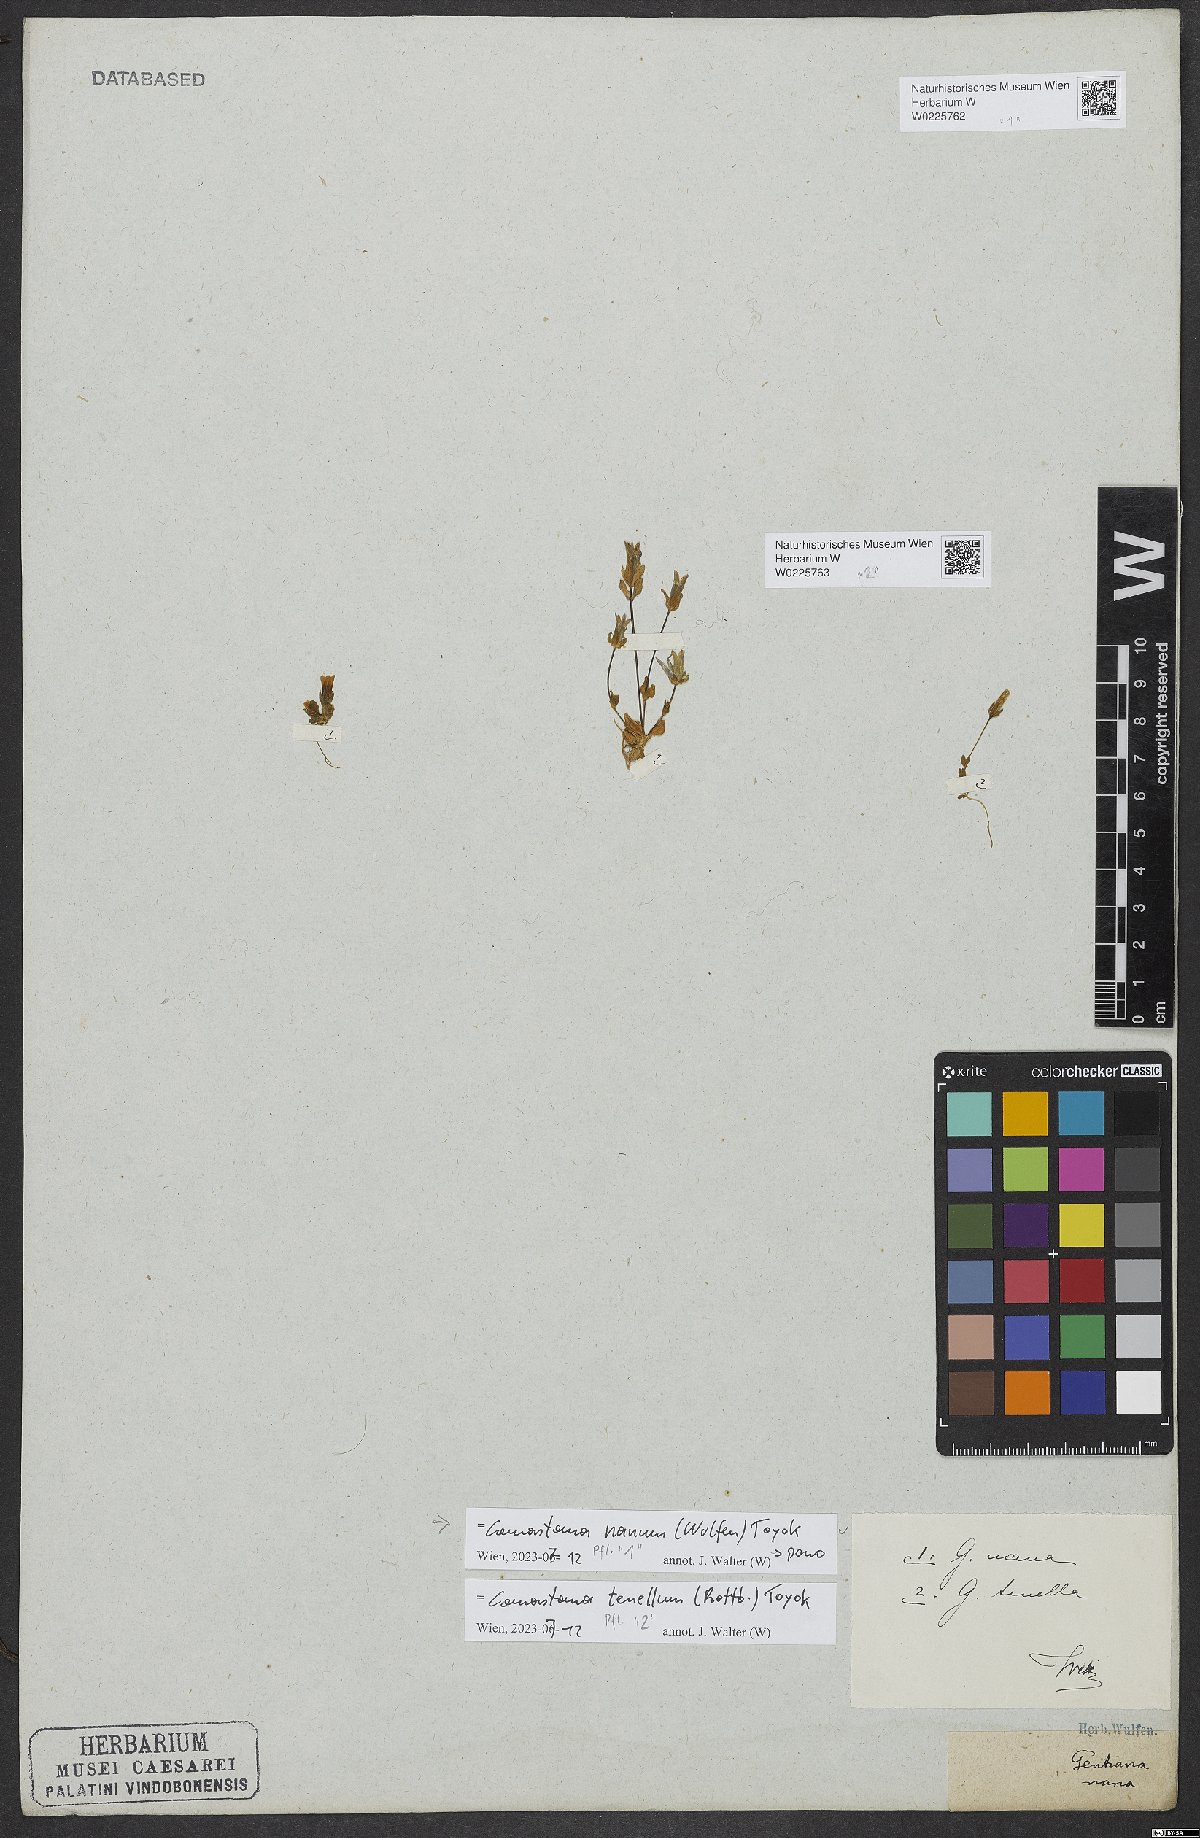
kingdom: Plantae
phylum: Tracheophyta
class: Magnoliopsida
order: Gentianales
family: Gentianaceae
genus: Comastoma
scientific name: Comastoma tenellum
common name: Dane's dwarf gentian
